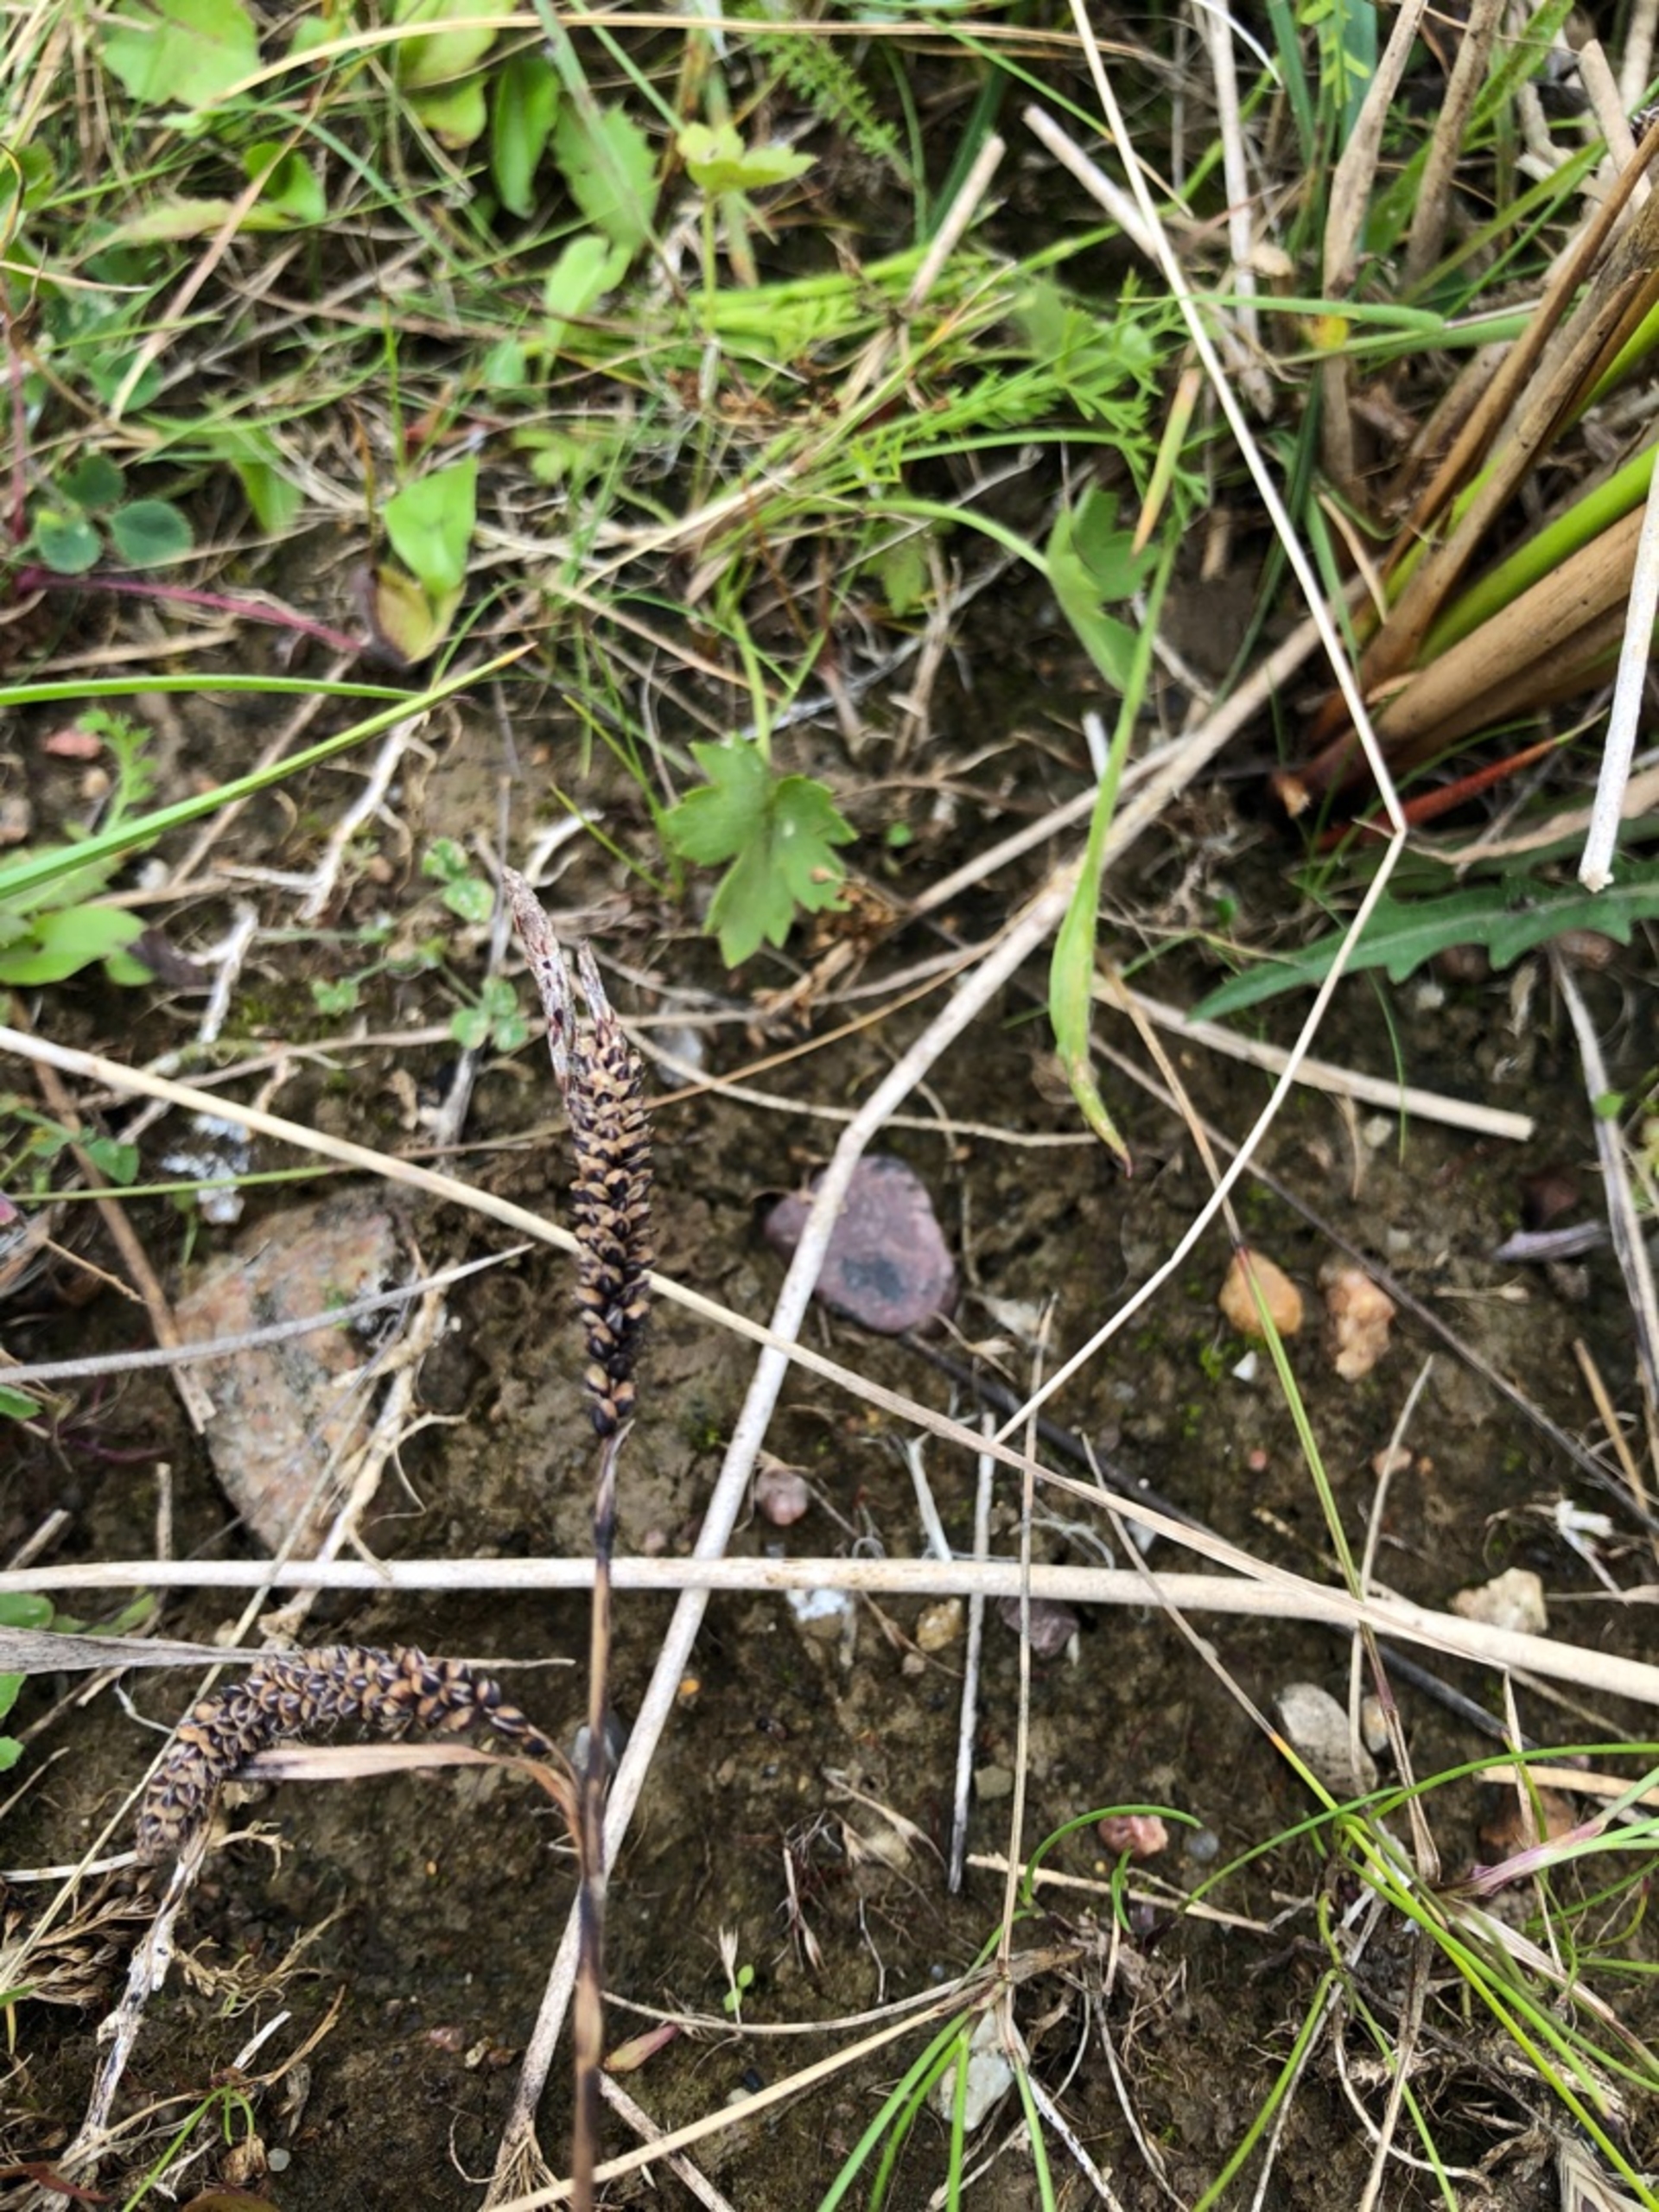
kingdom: Plantae
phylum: Tracheophyta
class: Liliopsida
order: Poales
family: Cyperaceae
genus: Carex
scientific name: Carex flacca
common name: Blågrøn star
